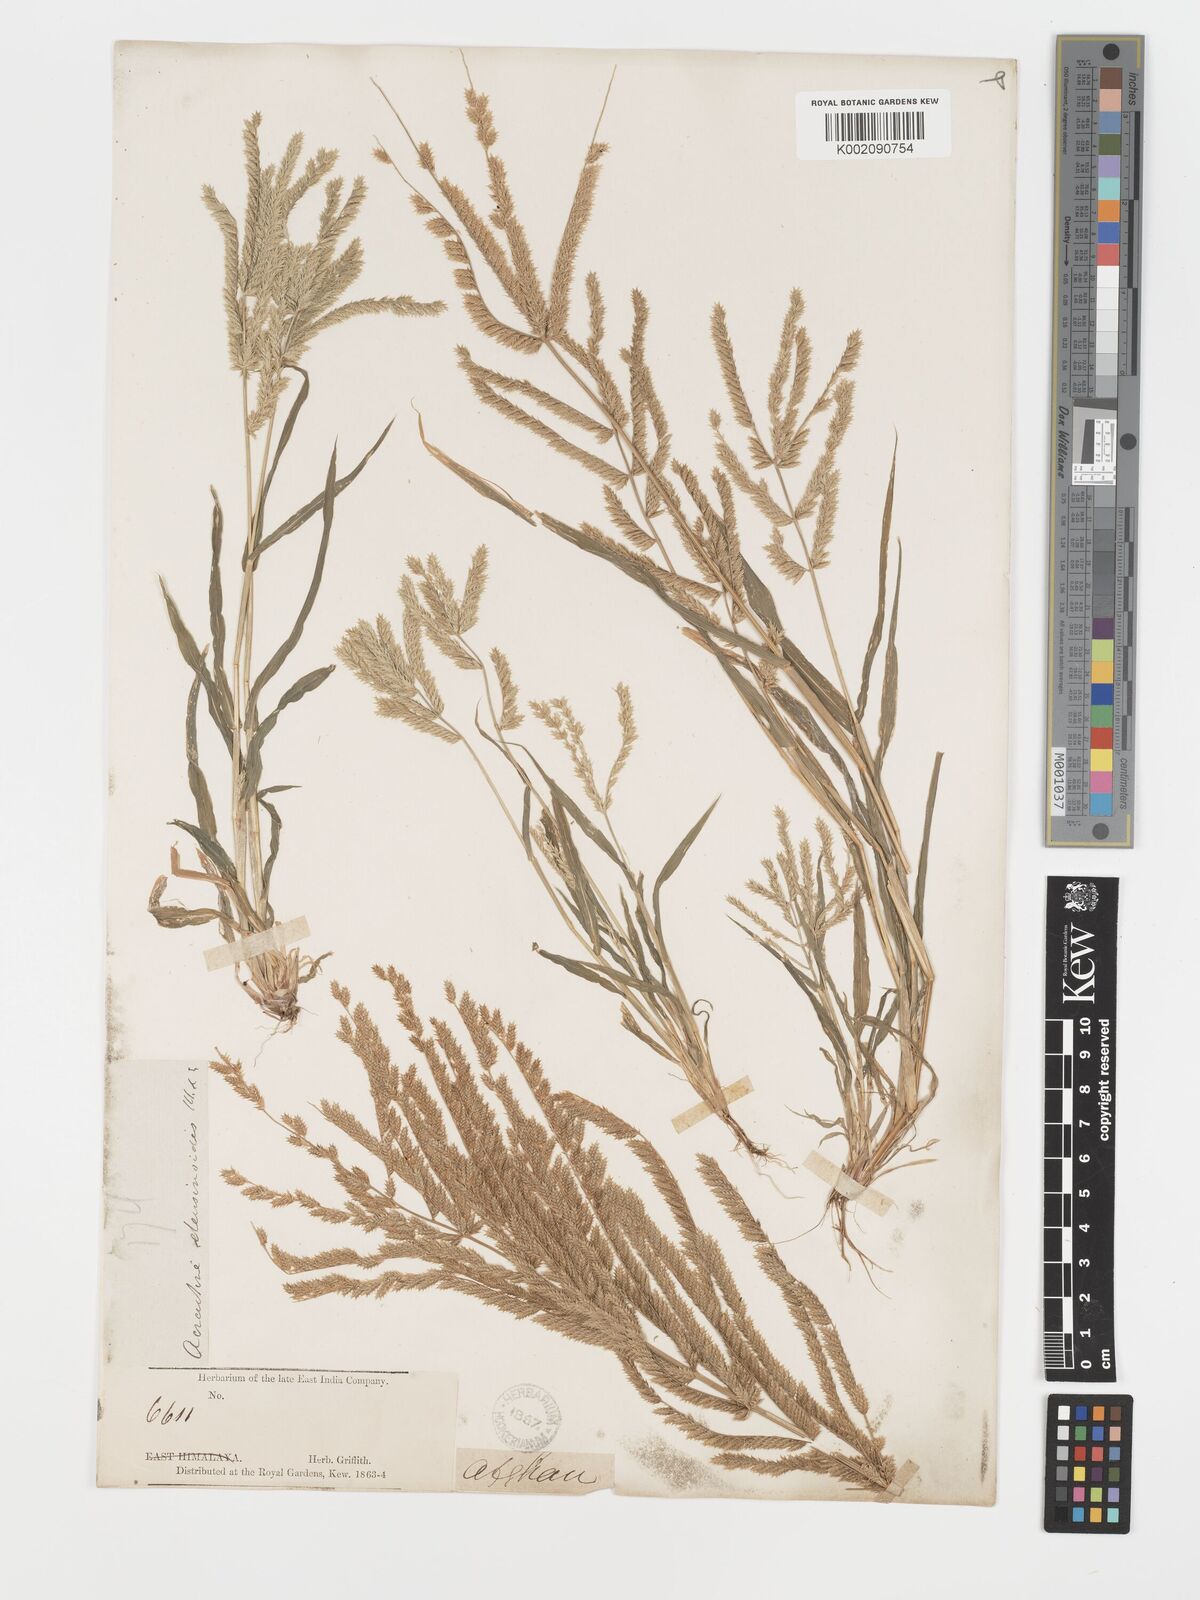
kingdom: Plantae
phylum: Tracheophyta
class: Liliopsida
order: Poales
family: Poaceae
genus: Acrachne
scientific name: Acrachne racemosa
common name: Goosegrass
